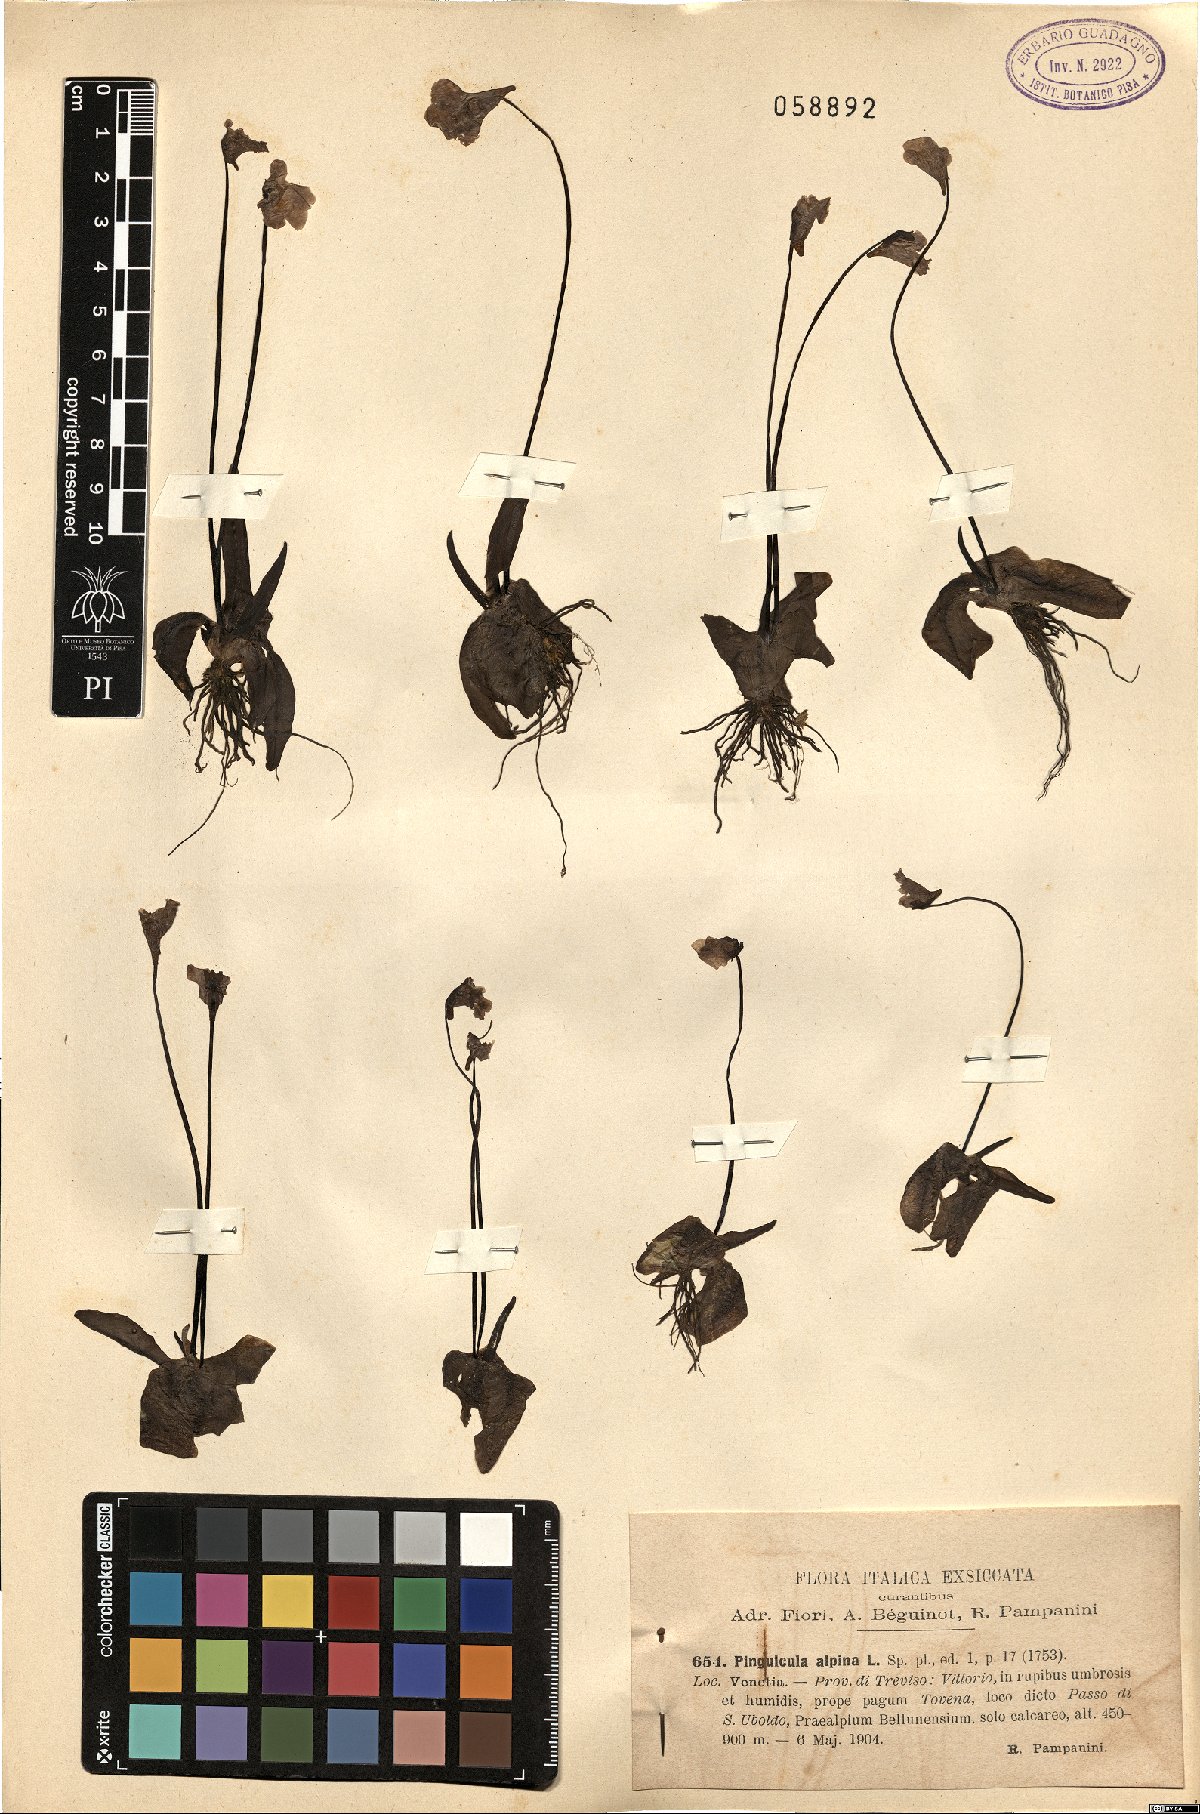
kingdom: Plantae
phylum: Tracheophyta
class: Magnoliopsida
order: Lamiales
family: Lentibulariaceae
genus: Pinguicula
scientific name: Pinguicula alpina
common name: Alpine butterwort
